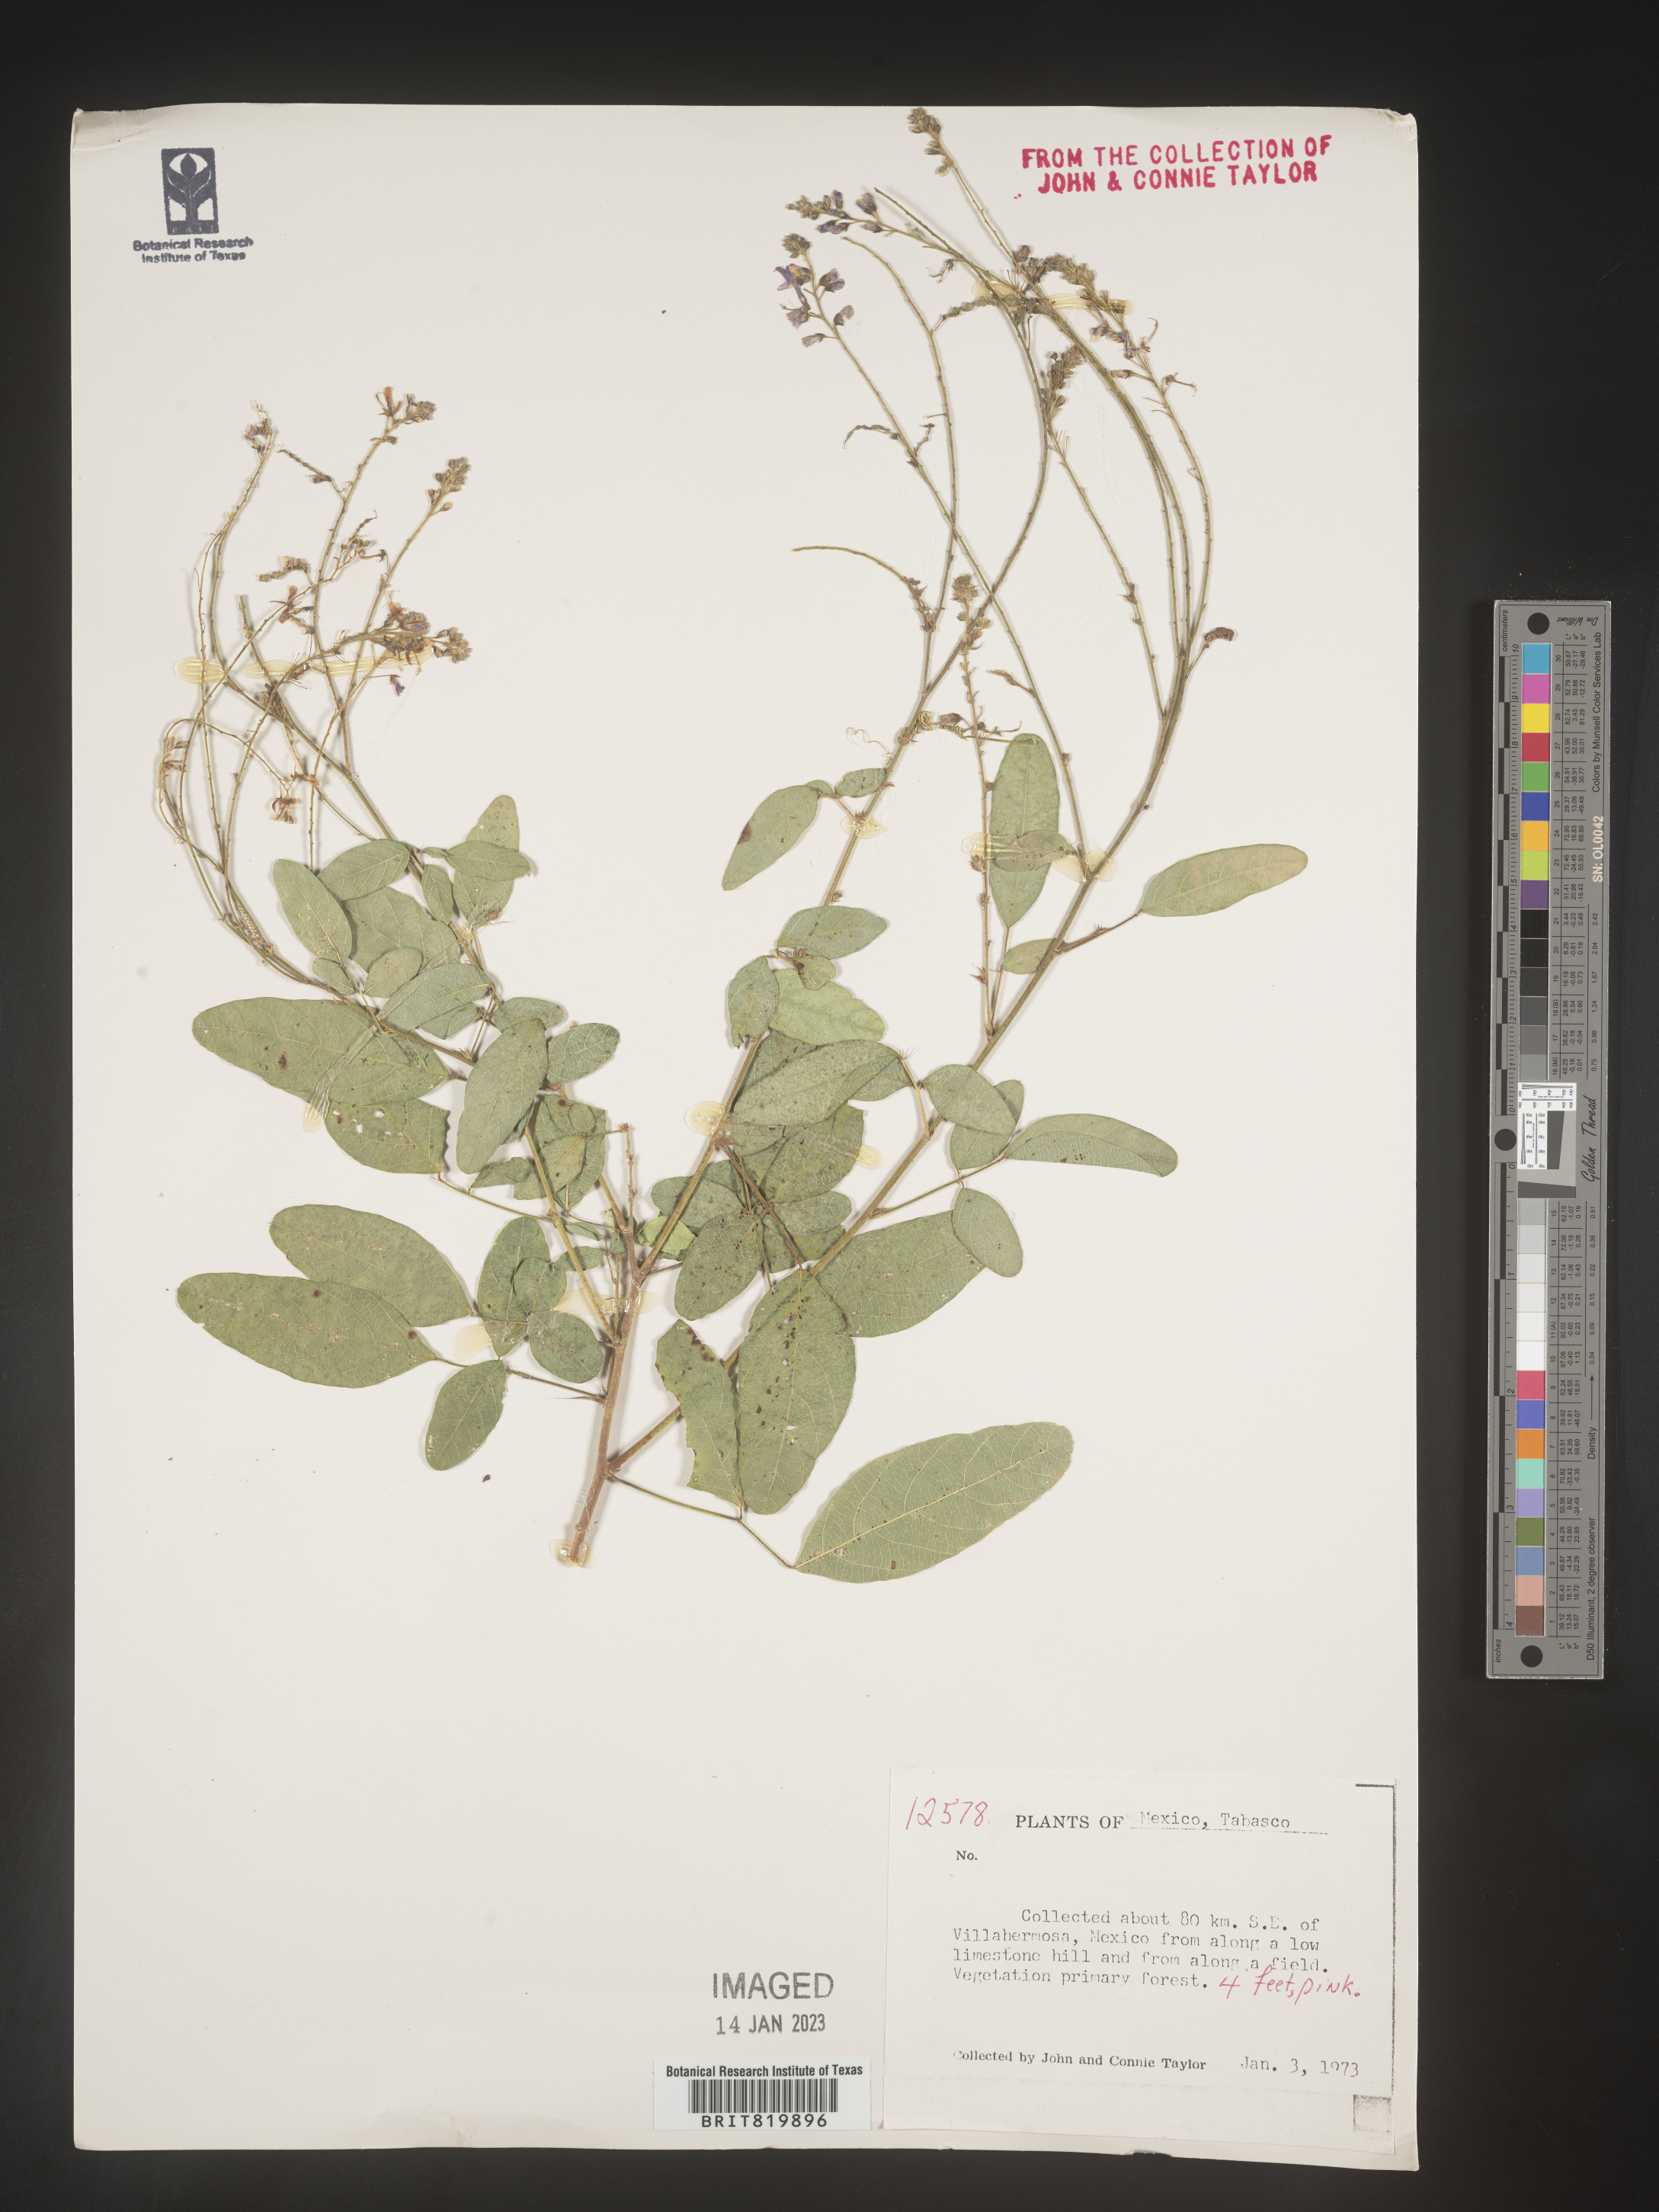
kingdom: Plantae
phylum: Tracheophyta
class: Magnoliopsida
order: Fabales
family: Fabaceae
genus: Desmodium
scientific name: Desmodium
